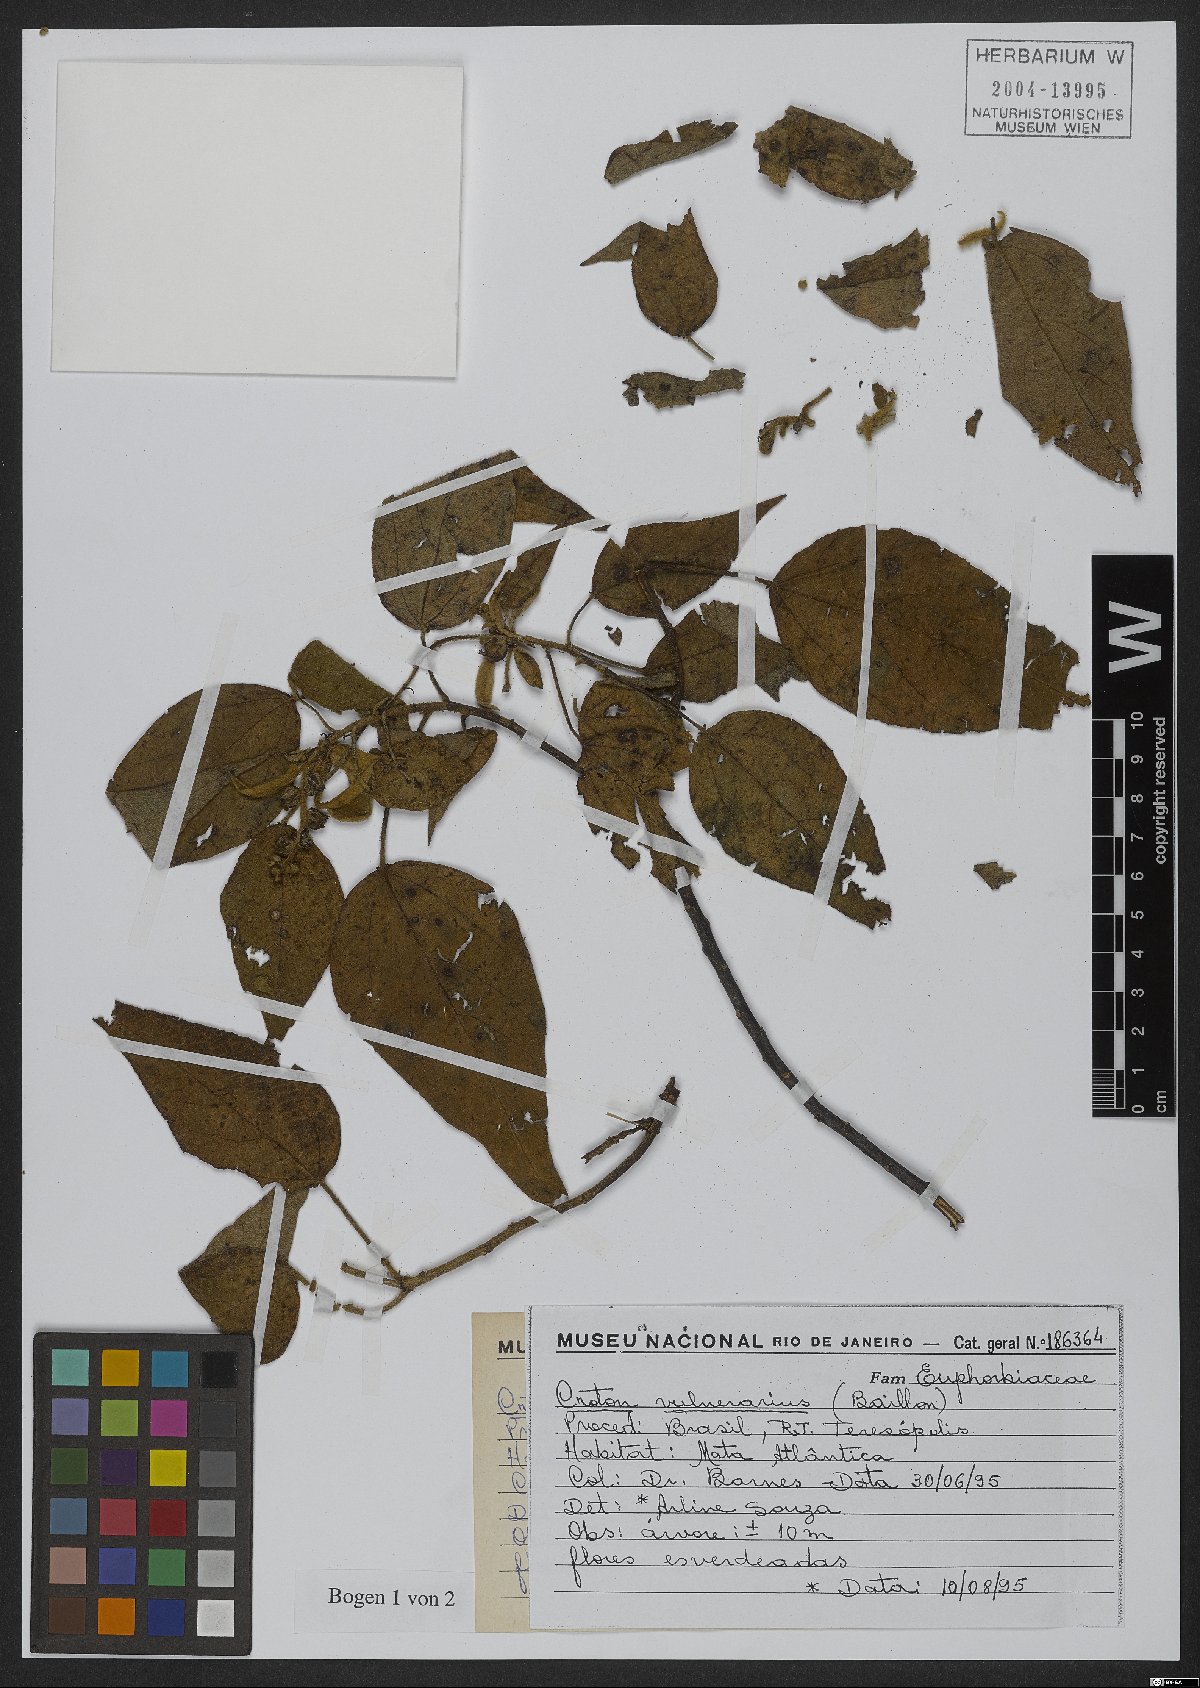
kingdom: Plantae
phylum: Tracheophyta
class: Magnoliopsida
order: Malpighiales
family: Euphorbiaceae
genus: Croton
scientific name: Croton vulnerarius
